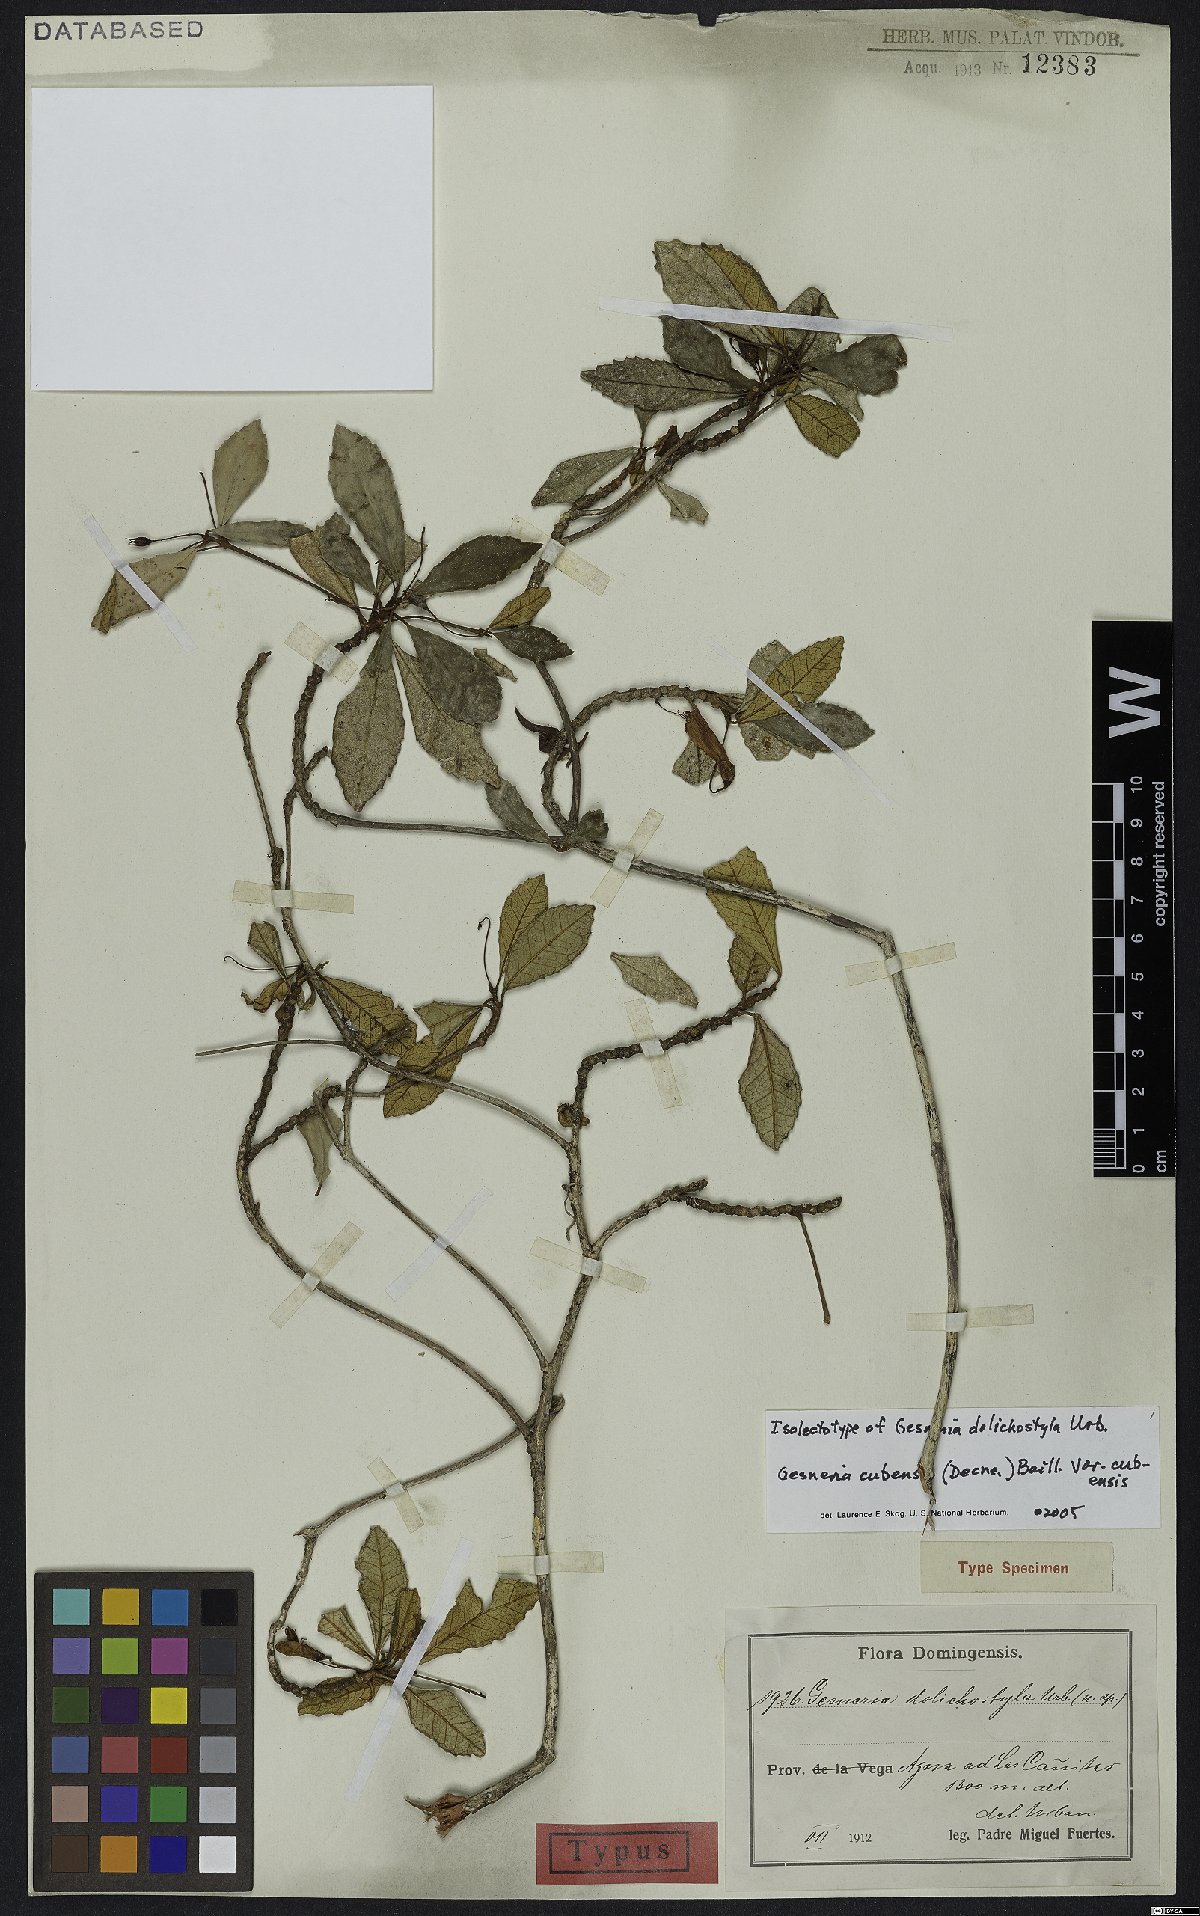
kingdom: Plantae
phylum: Tracheophyta
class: Magnoliopsida
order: Lamiales
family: Gesneriaceae
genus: Gesneria
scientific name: Gesneria cubensis
